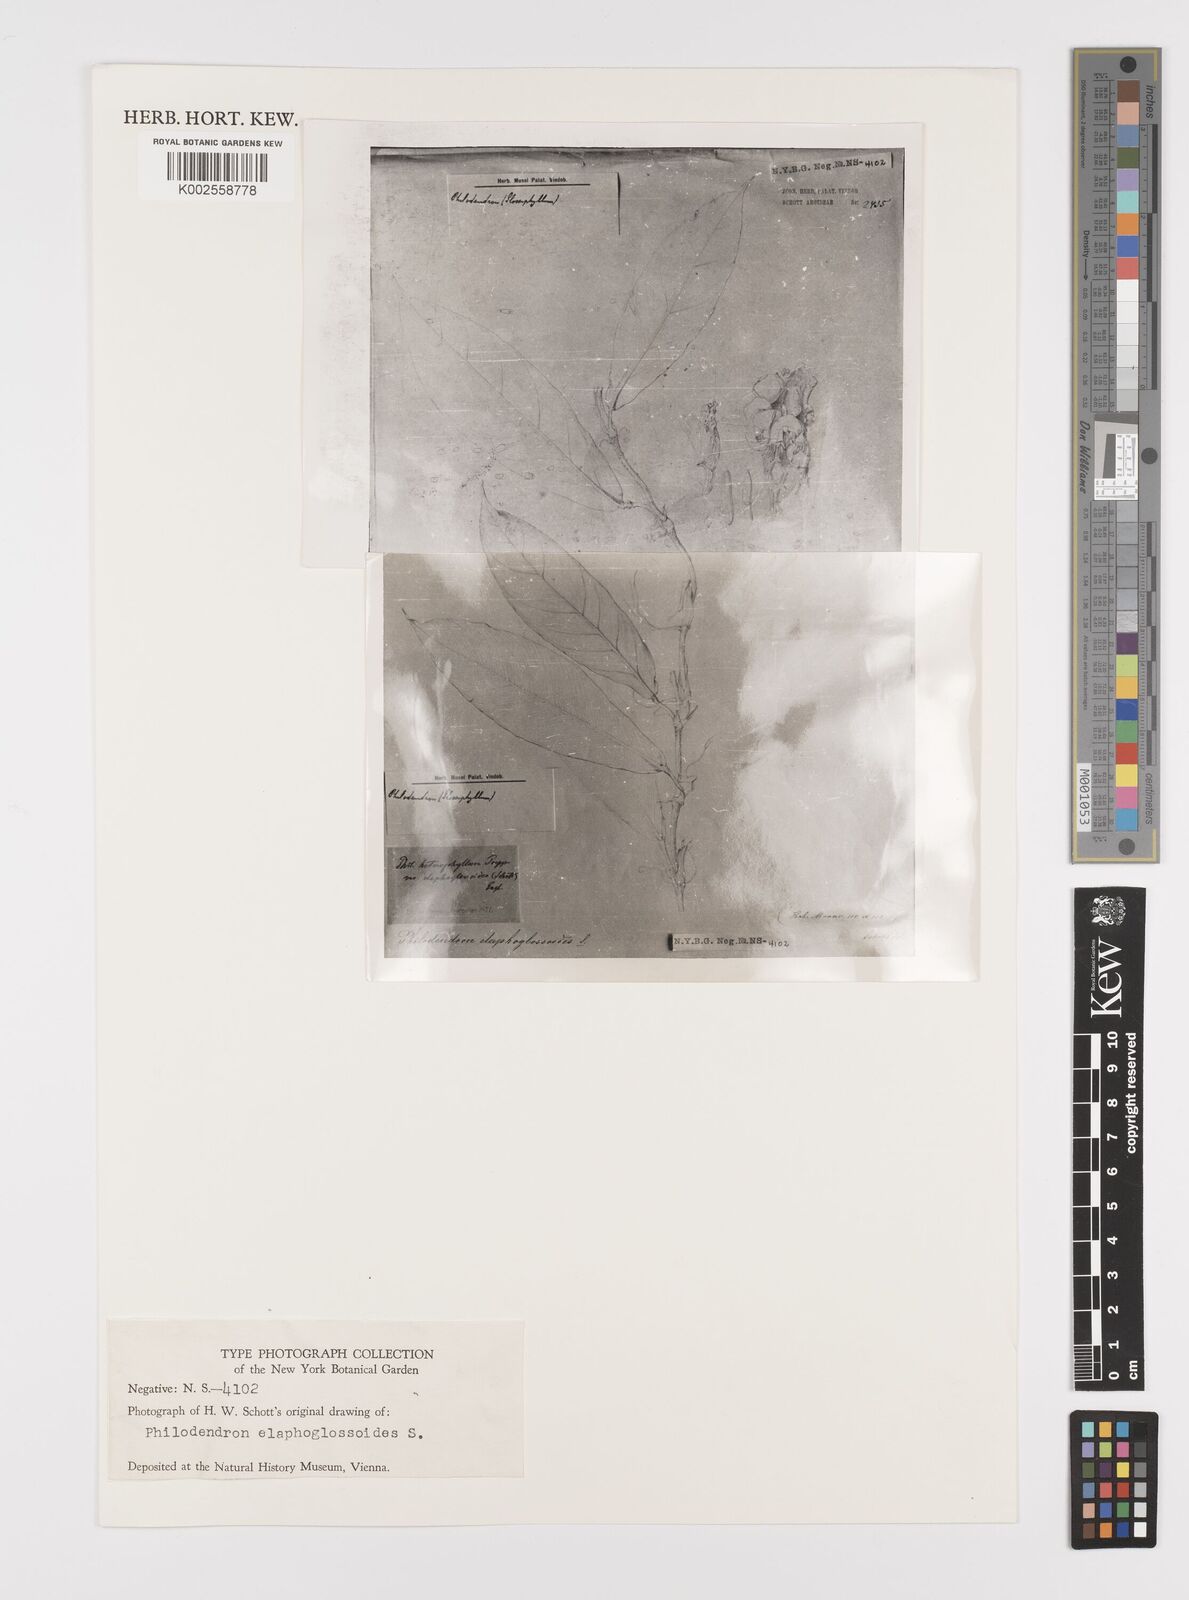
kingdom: Plantae
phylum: Tracheophyta
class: Liliopsida
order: Alismatales
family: Araceae
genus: Philodendron
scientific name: Philodendron elaphoglossoides
